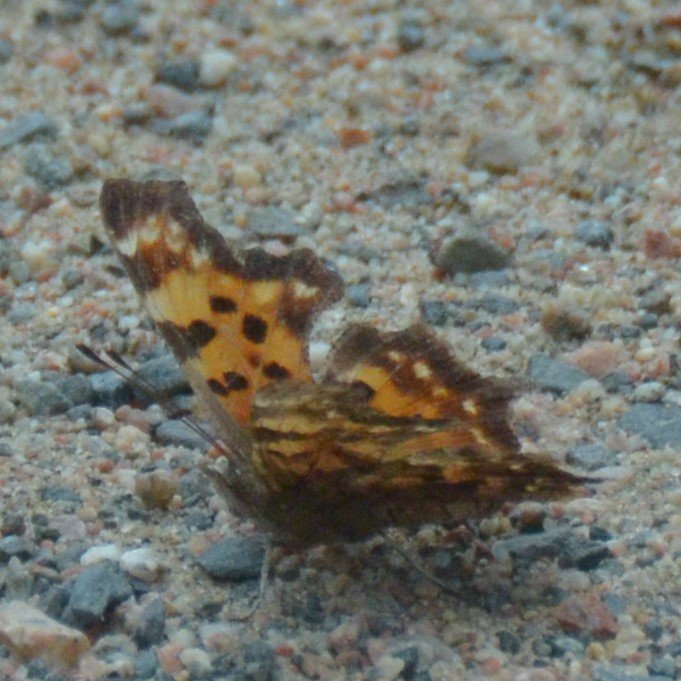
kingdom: Animalia
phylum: Arthropoda
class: Insecta
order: Lepidoptera
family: Nymphalidae
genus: Polygonia
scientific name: Polygonia faunus
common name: Green Comma
